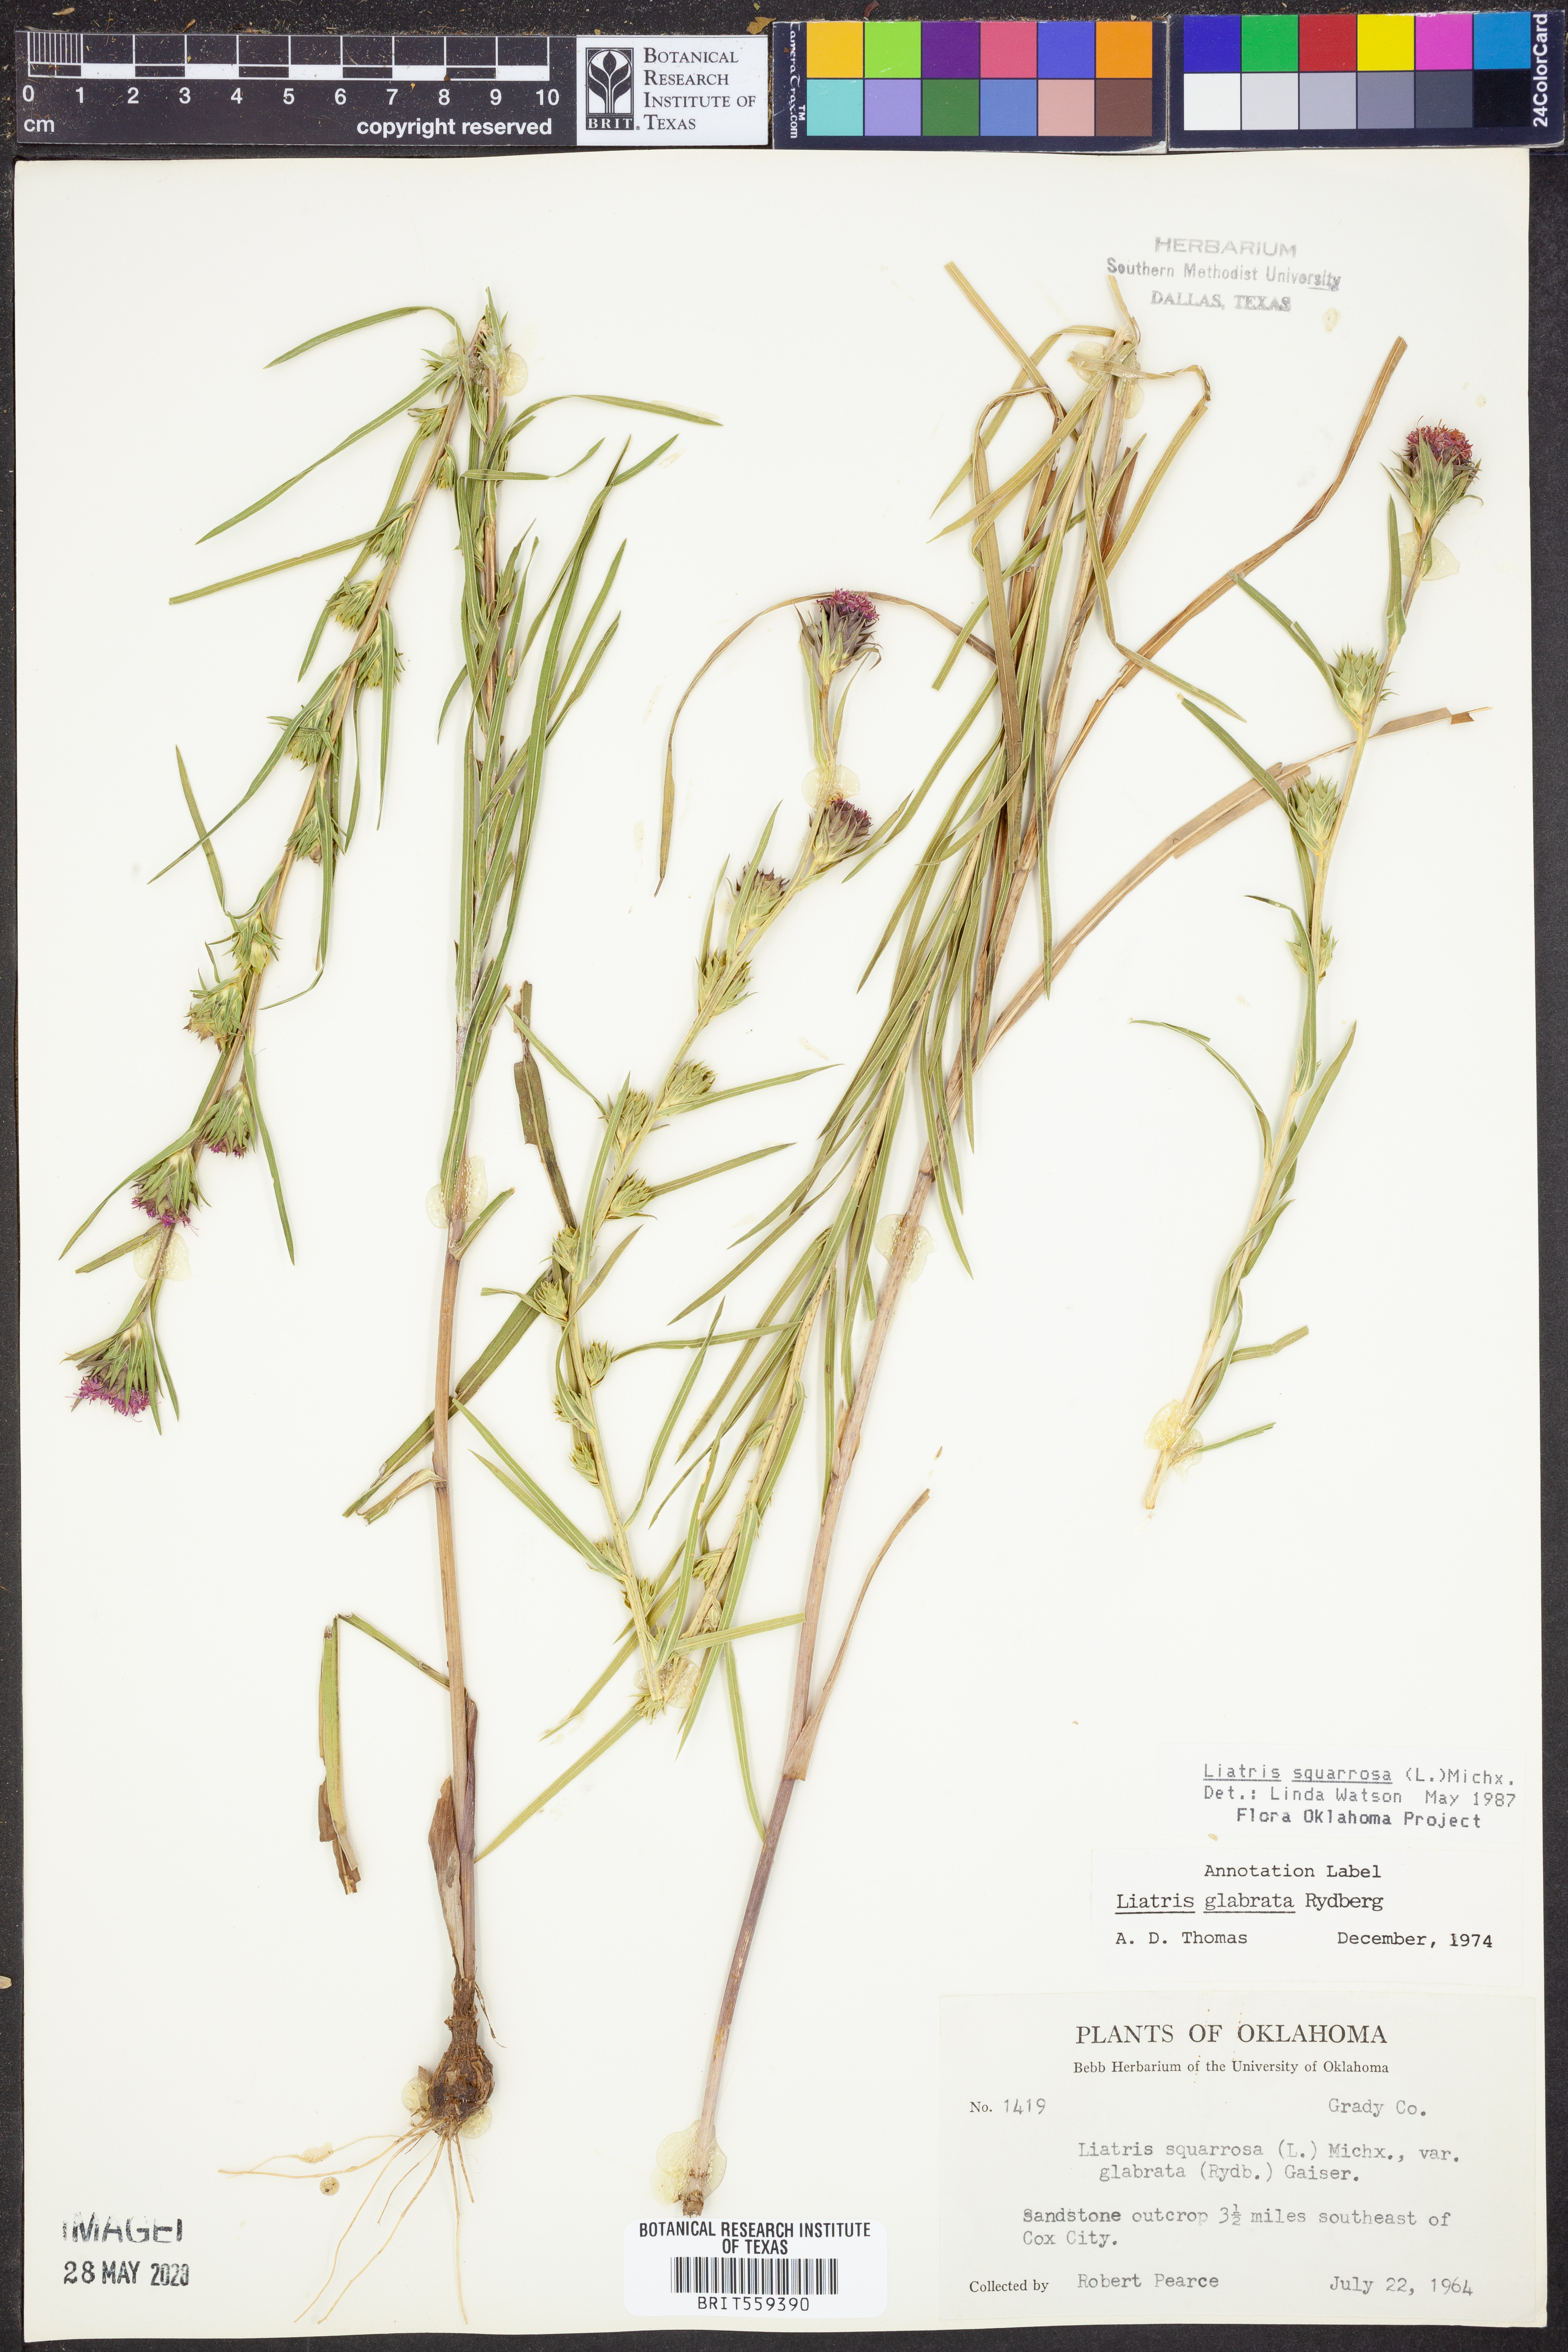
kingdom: Plantae
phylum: Tracheophyta
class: Magnoliopsida
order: Asterales
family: Asteraceae
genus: Liatris
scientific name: Liatris squarrosa
